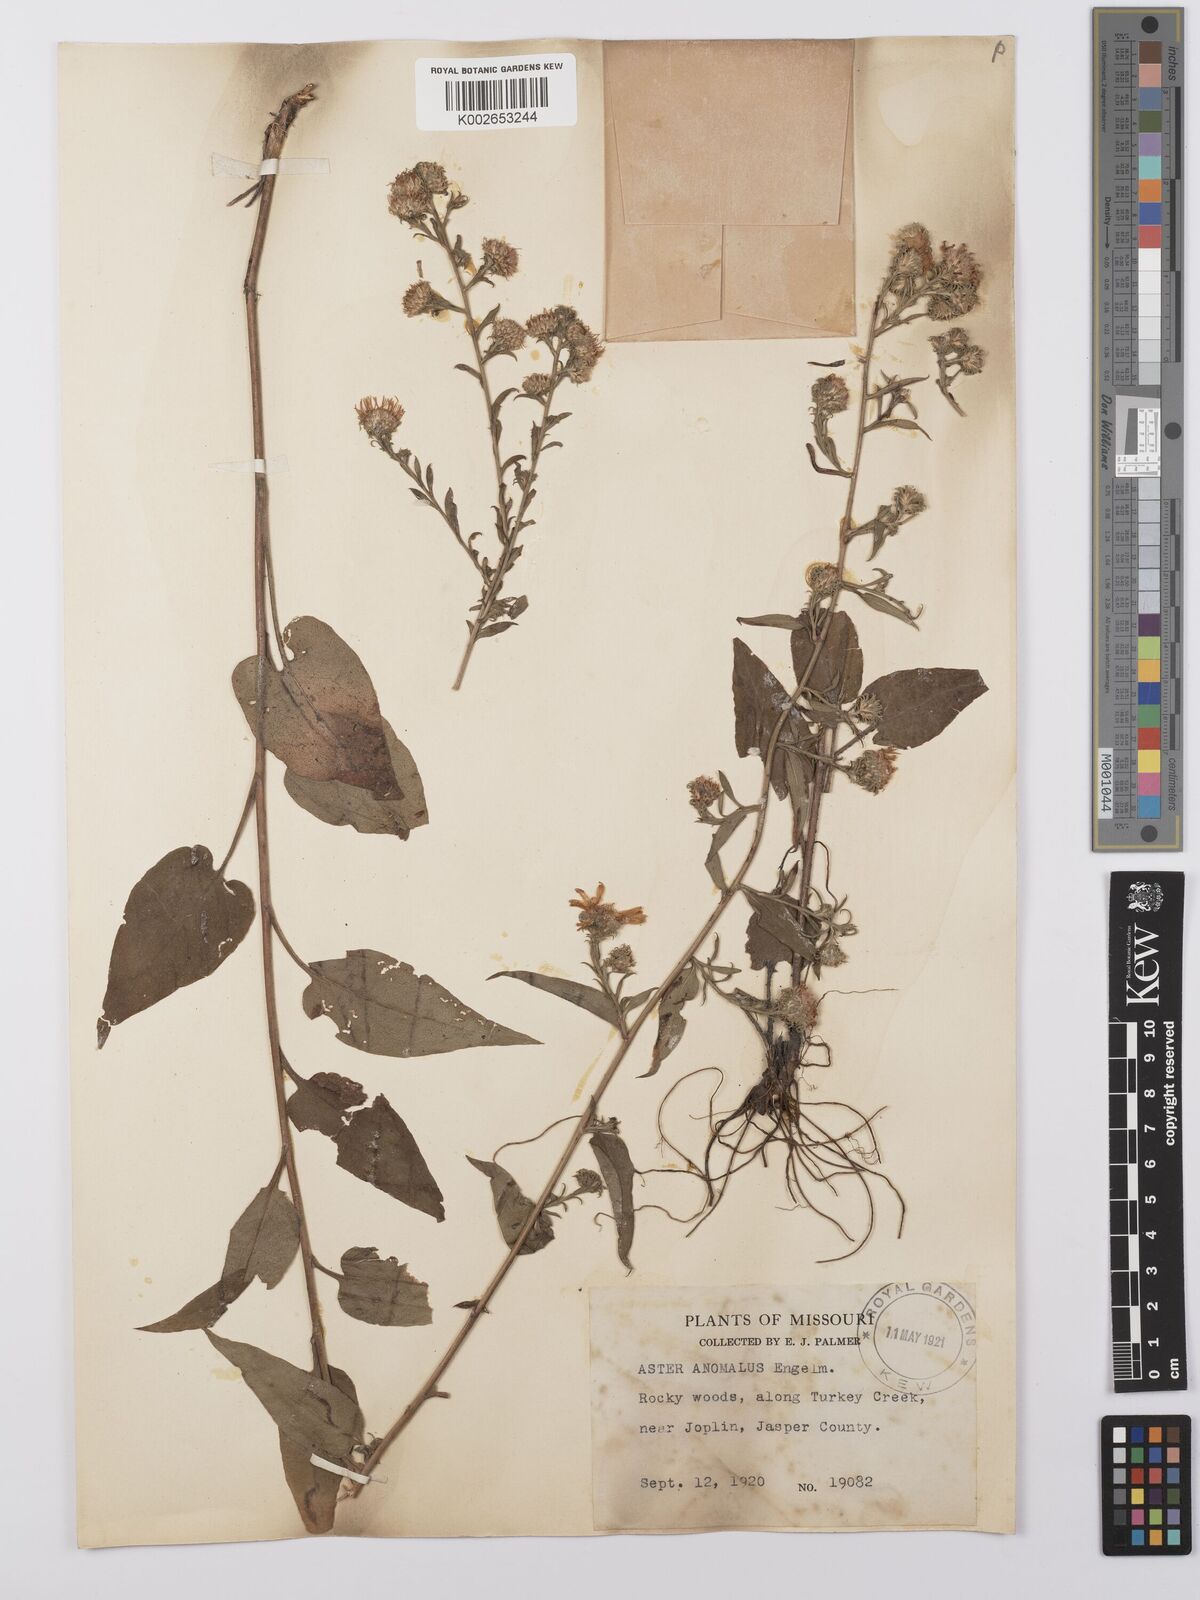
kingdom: Plantae
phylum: Tracheophyta
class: Magnoliopsida
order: Asterales
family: Asteraceae
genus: Symphyotrichum
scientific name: Symphyotrichum anomalum
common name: Many-ray aster
